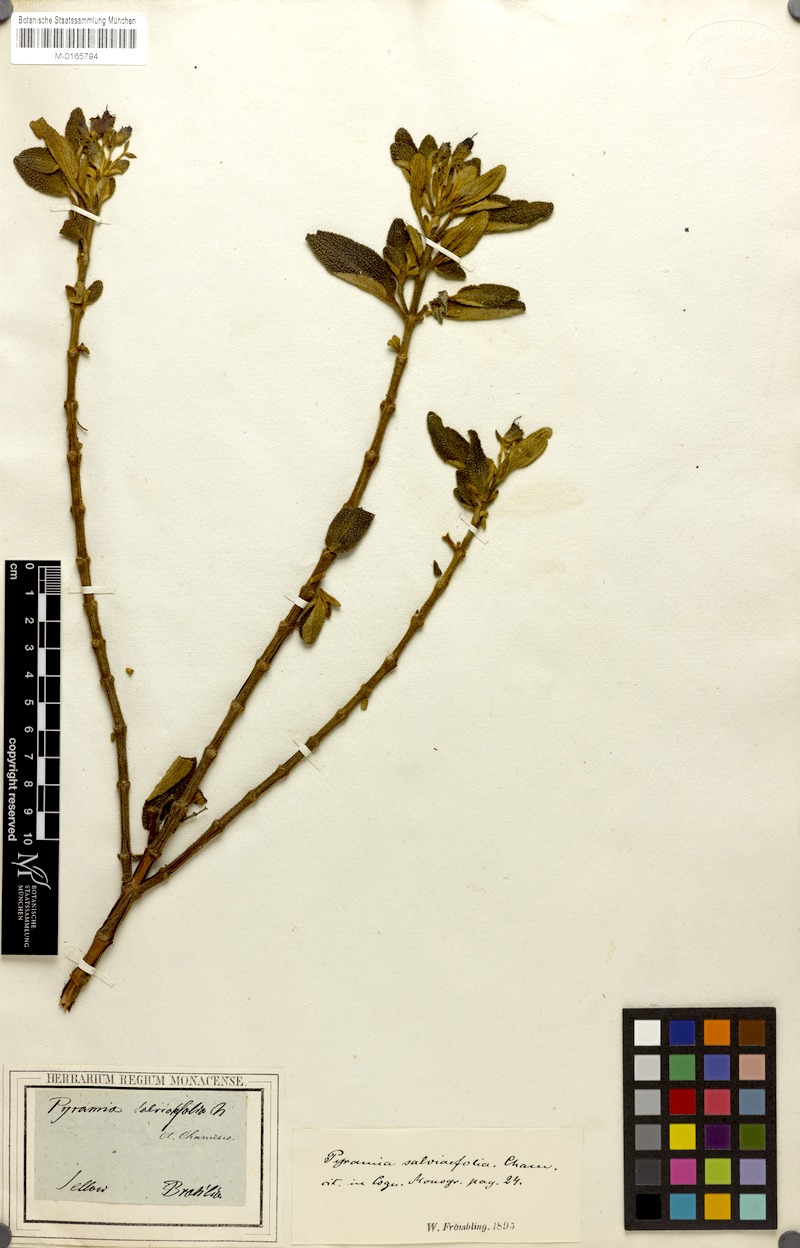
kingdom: Plantae
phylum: Tracheophyta
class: Magnoliopsida
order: Myrtales
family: Melastomataceae
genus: Cambessedesia
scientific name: Cambessedesia salviifolia
